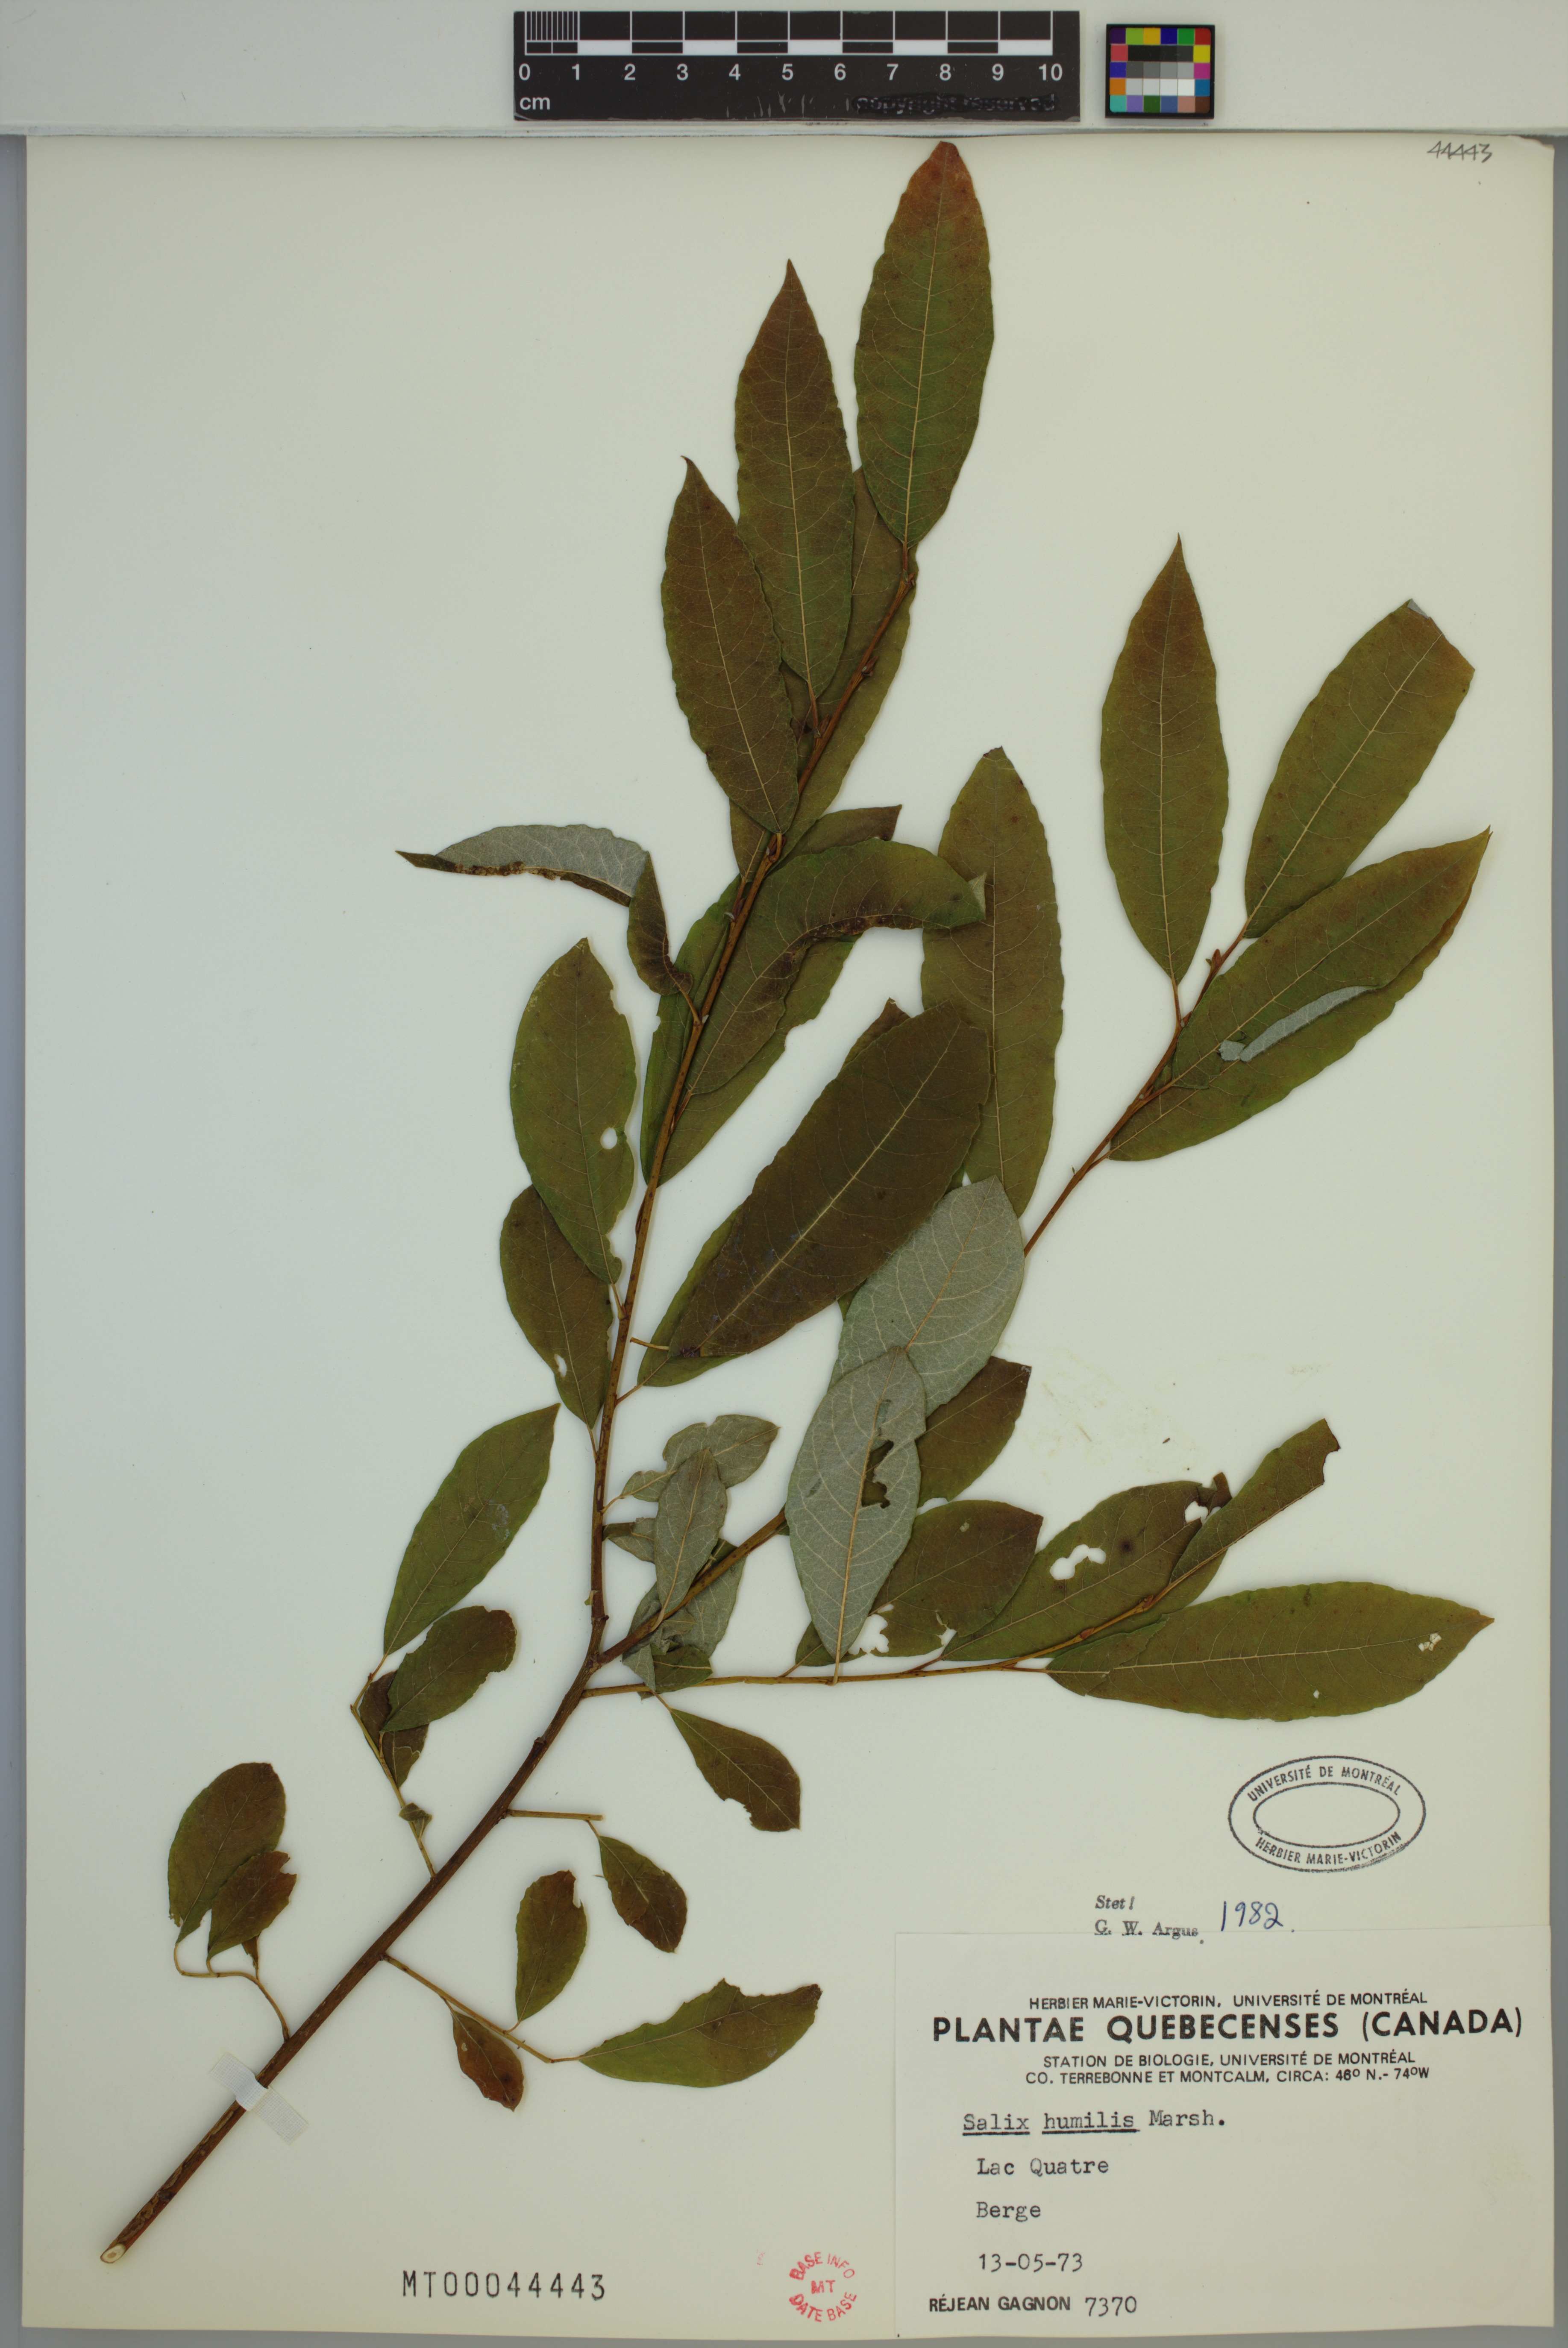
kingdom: Plantae
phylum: Tracheophyta
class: Magnoliopsida
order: Malpighiales
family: Salicaceae
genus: Salix
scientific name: Salix humilis
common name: Prairie willow
